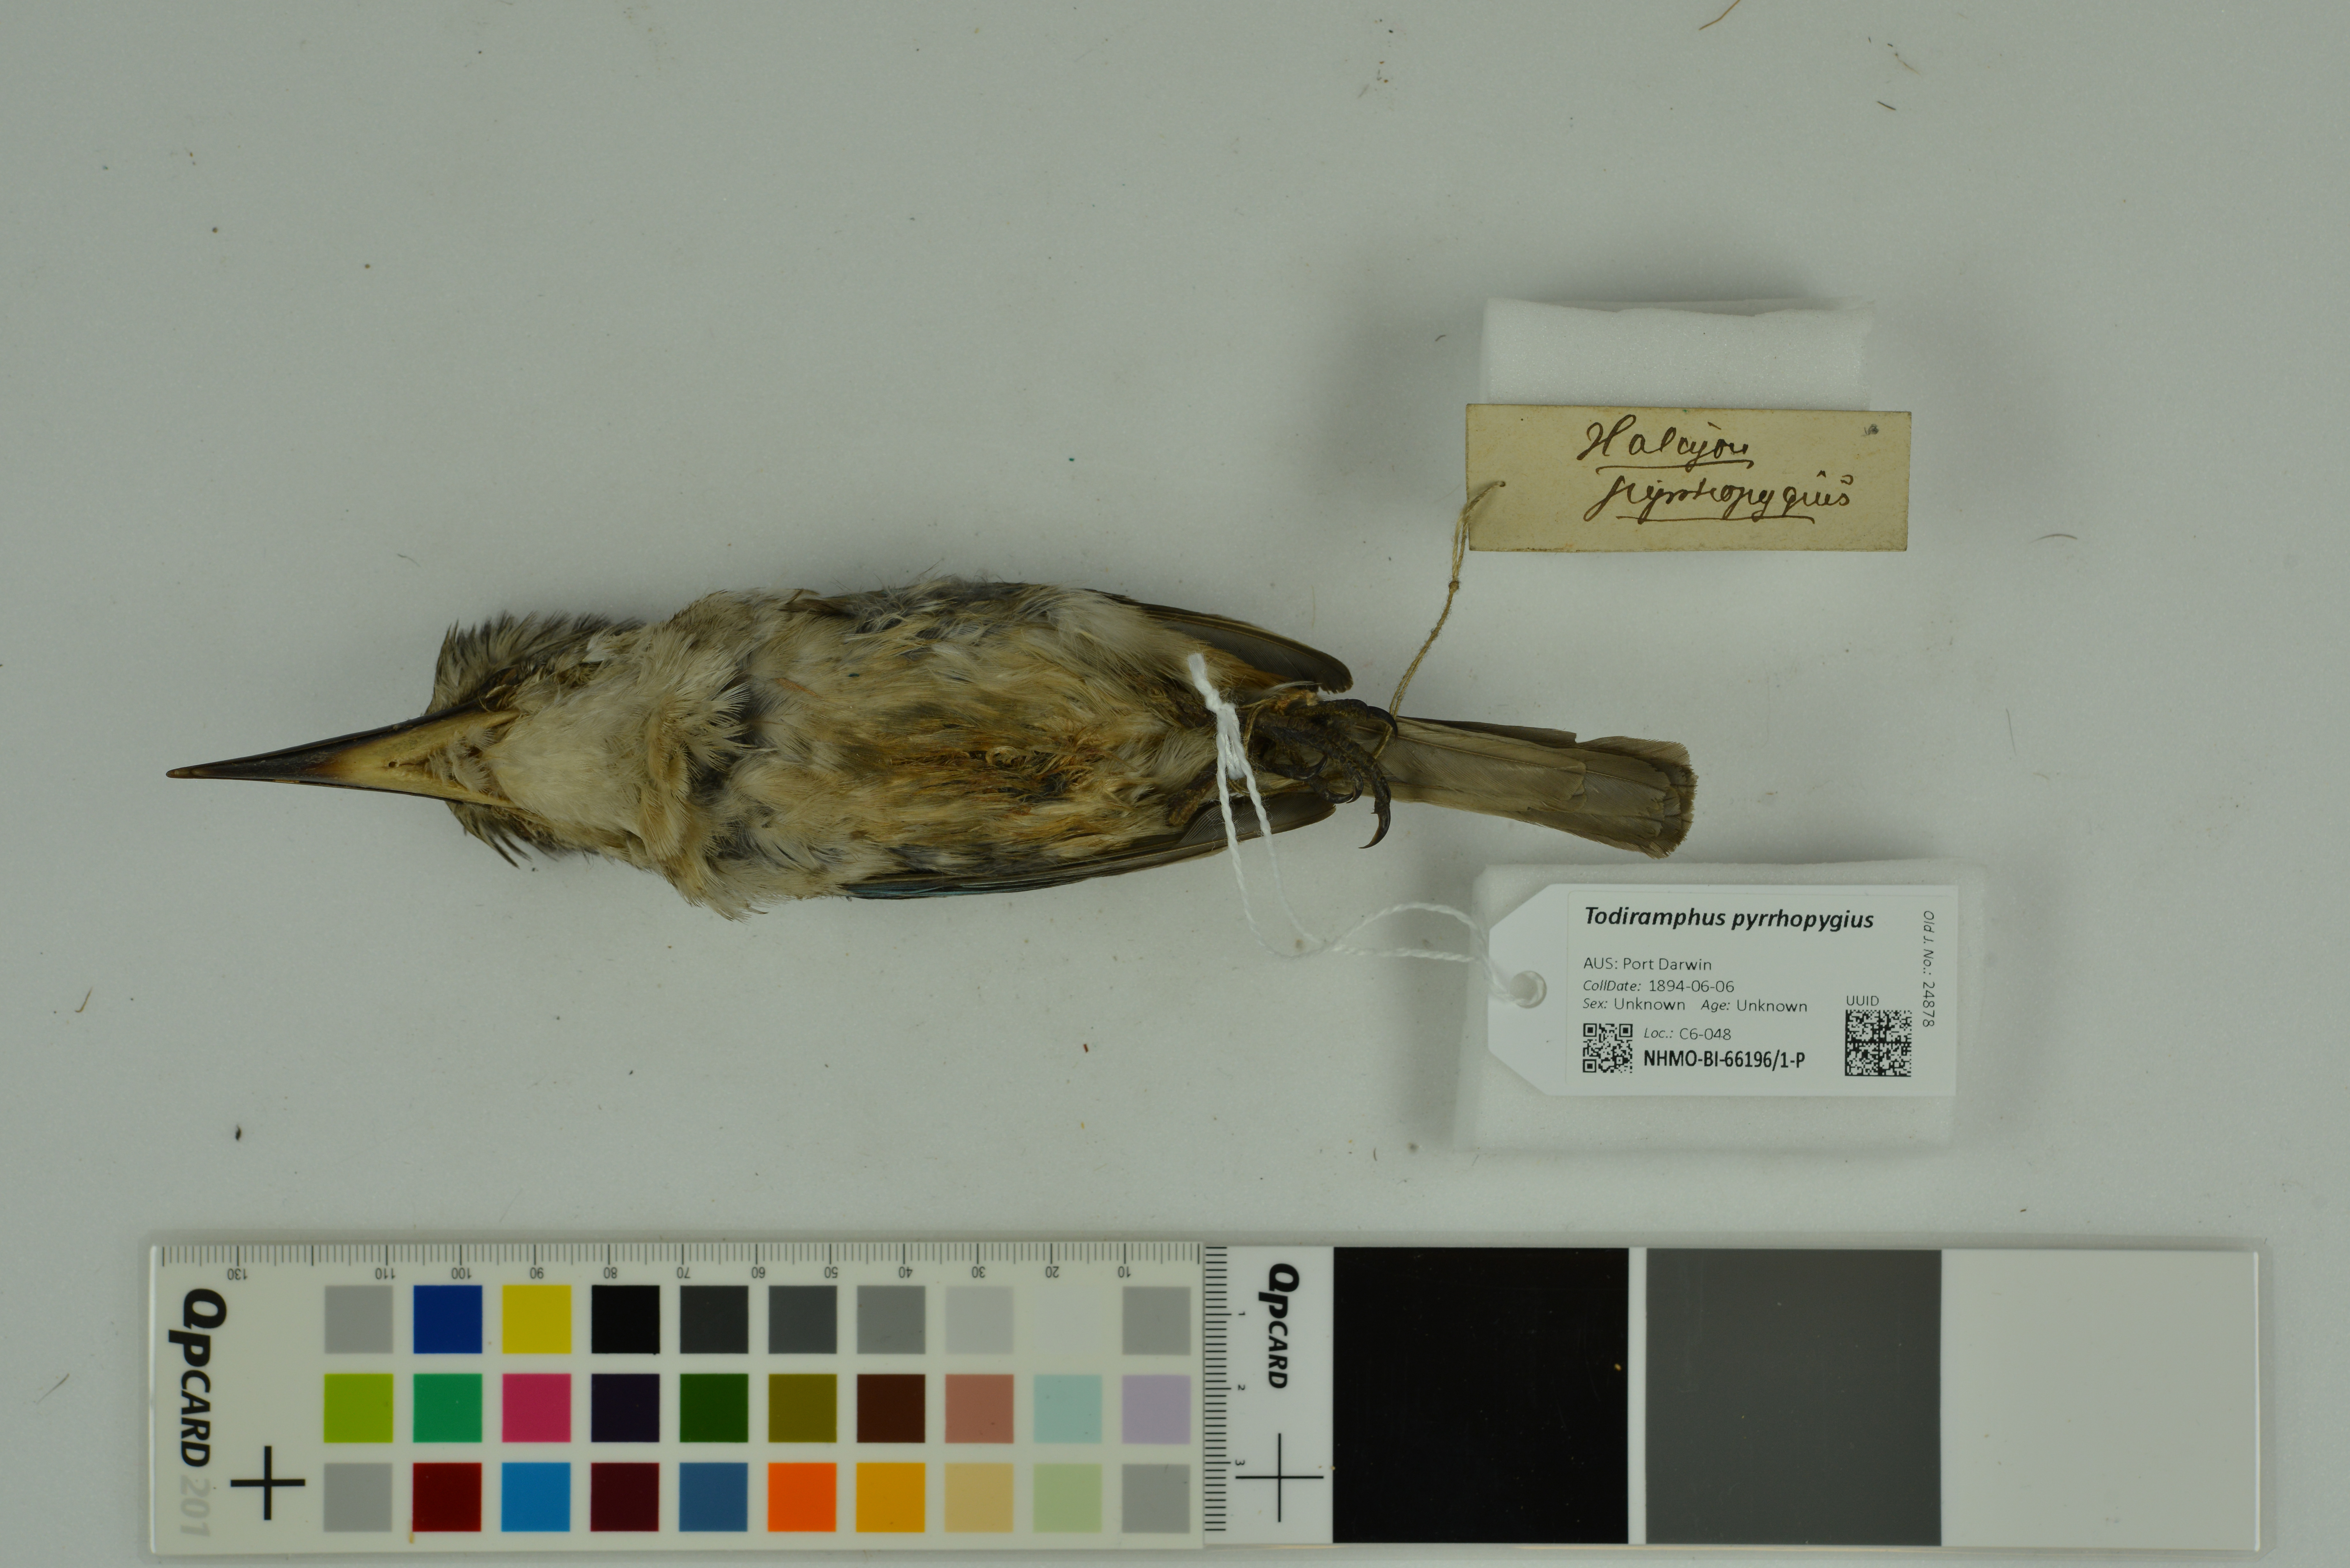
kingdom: Animalia
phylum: Chordata
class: Aves
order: Coraciiformes
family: Alcedinidae
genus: Todiramphus
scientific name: Todiramphus pyrrhopygius
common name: Red-backed kingfisher
